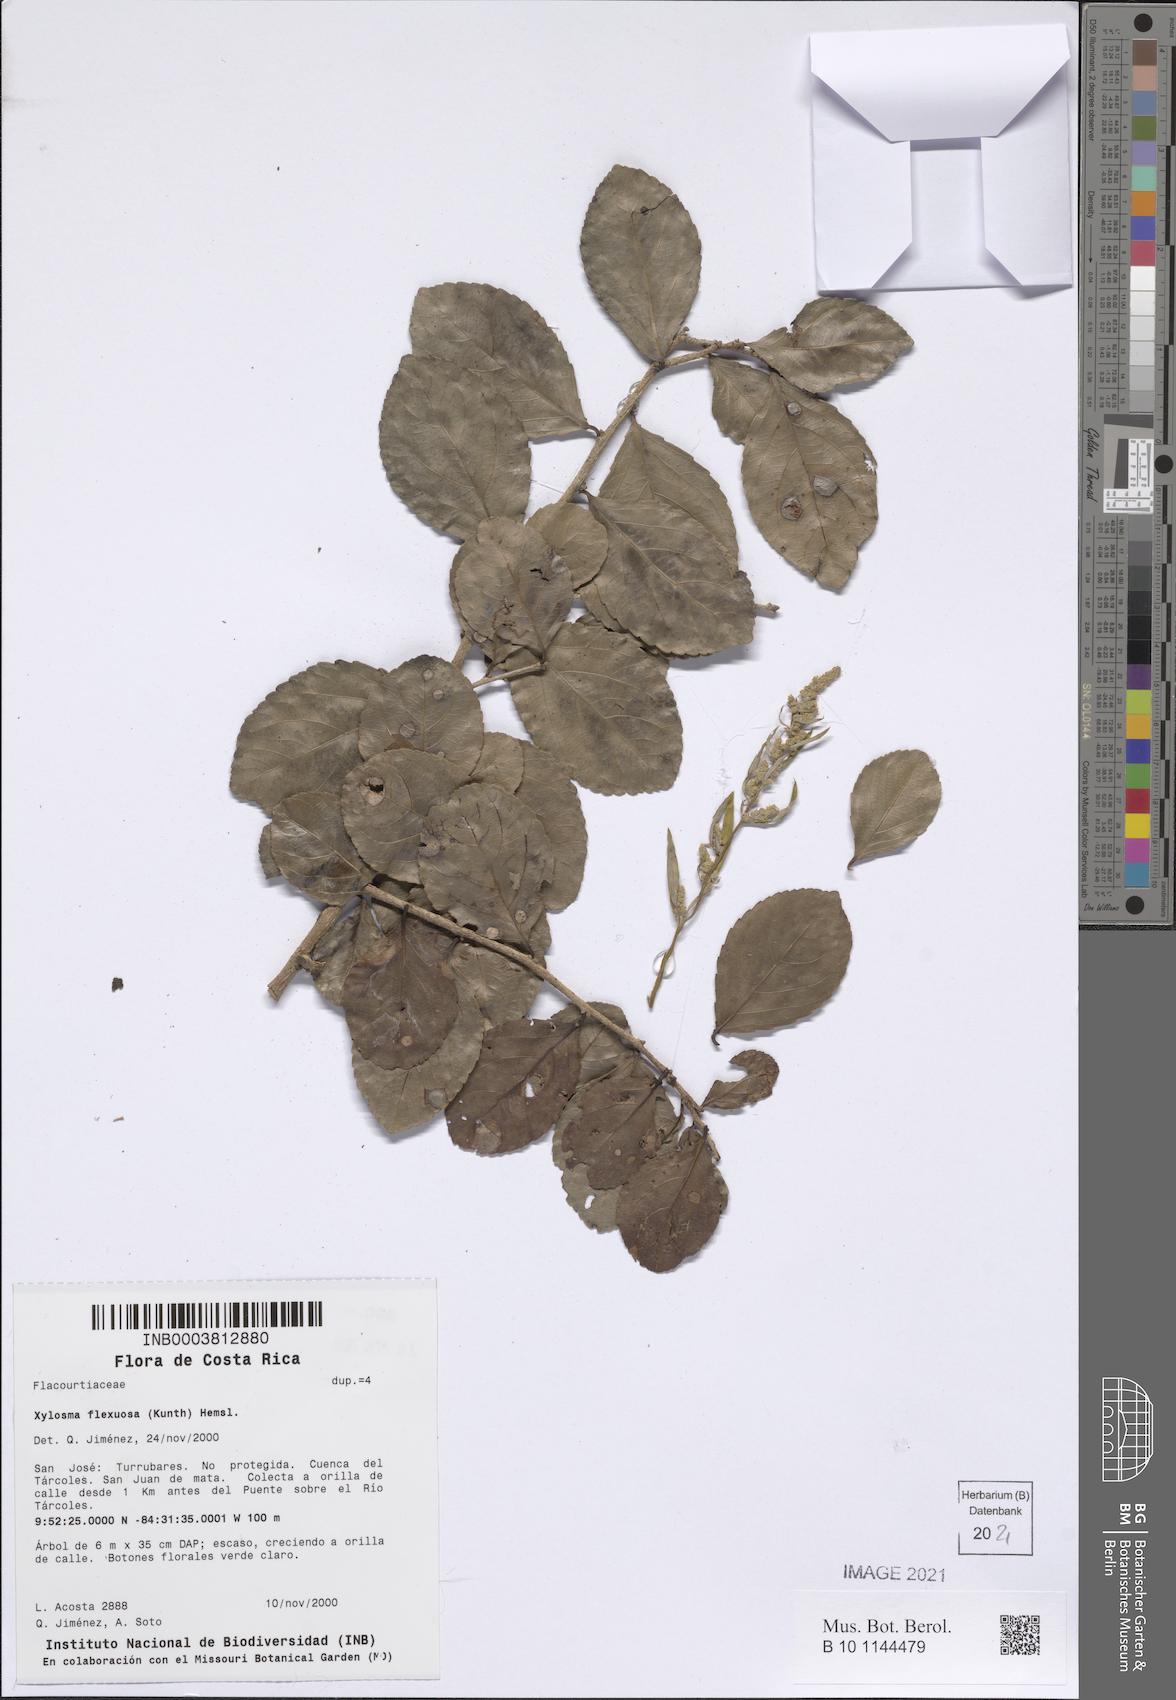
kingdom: Plantae
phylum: Tracheophyta
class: Magnoliopsida
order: Malpighiales
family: Salicaceae
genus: Xylosma
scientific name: Xylosma flexuosa
